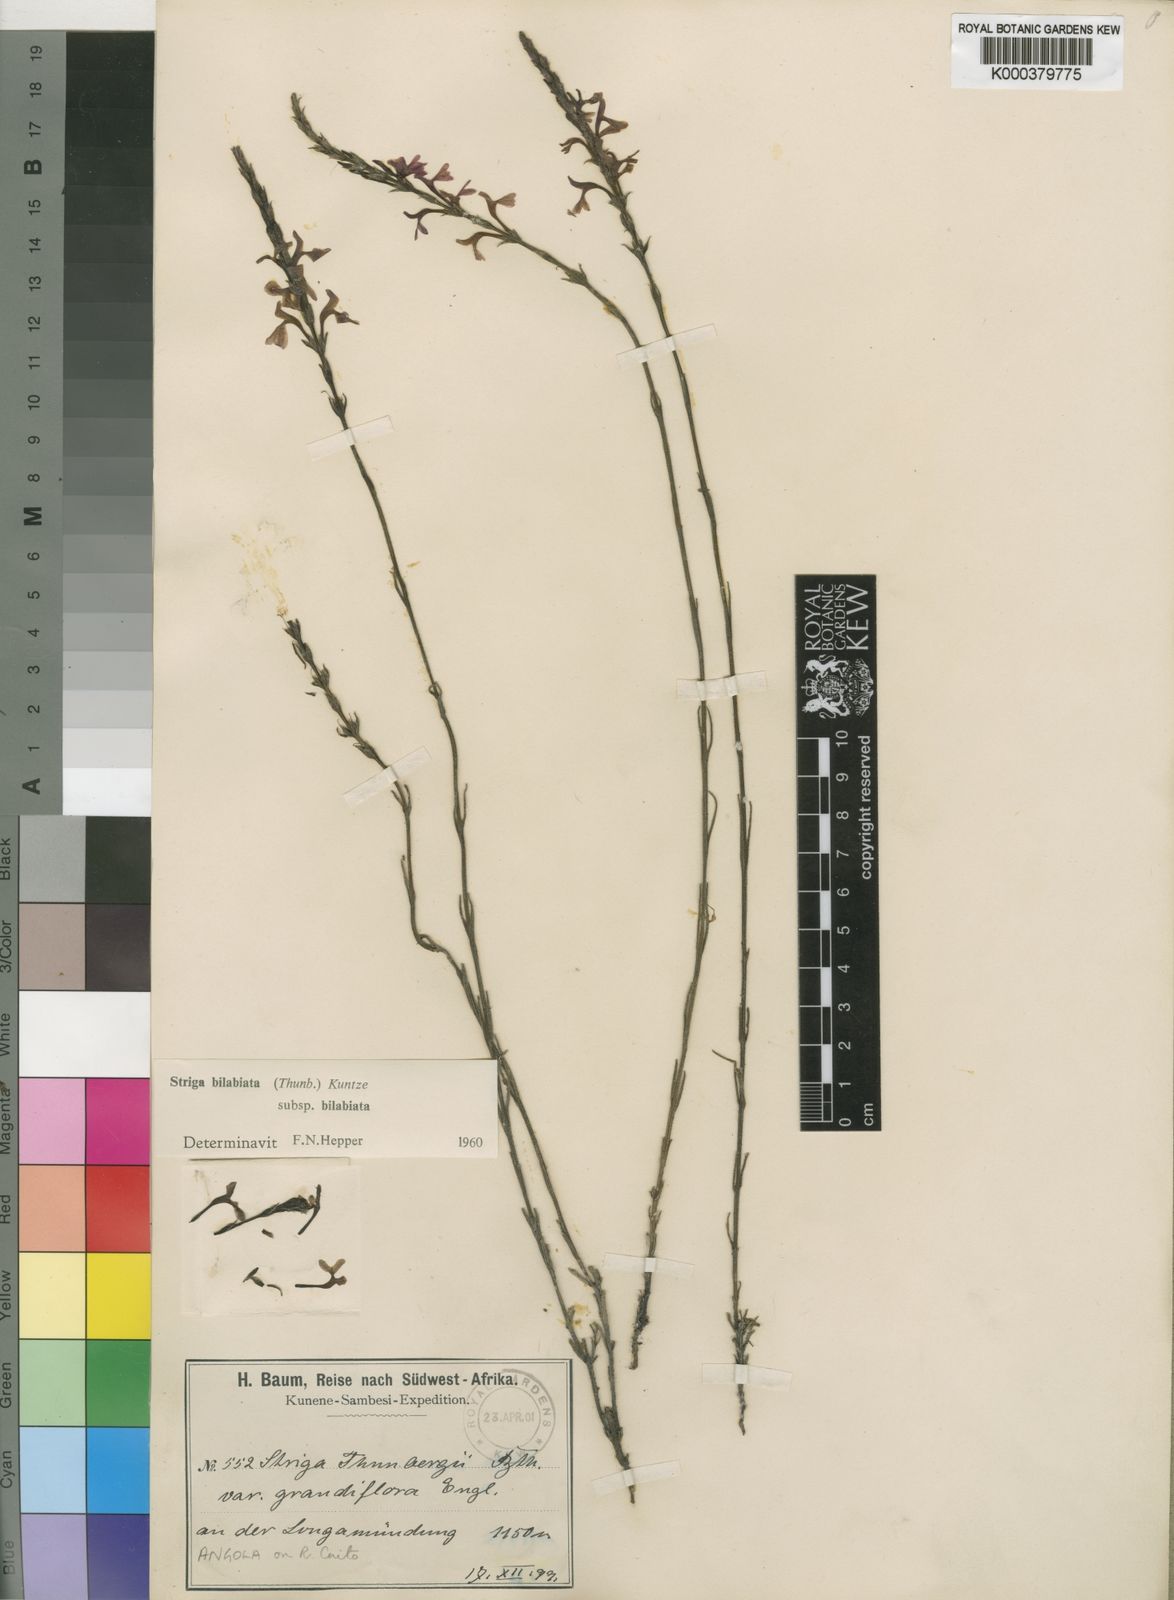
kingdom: Plantae
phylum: Tracheophyta
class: Magnoliopsida
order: Lamiales
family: Orobanchaceae
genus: Striga
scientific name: Striga bilabiata
